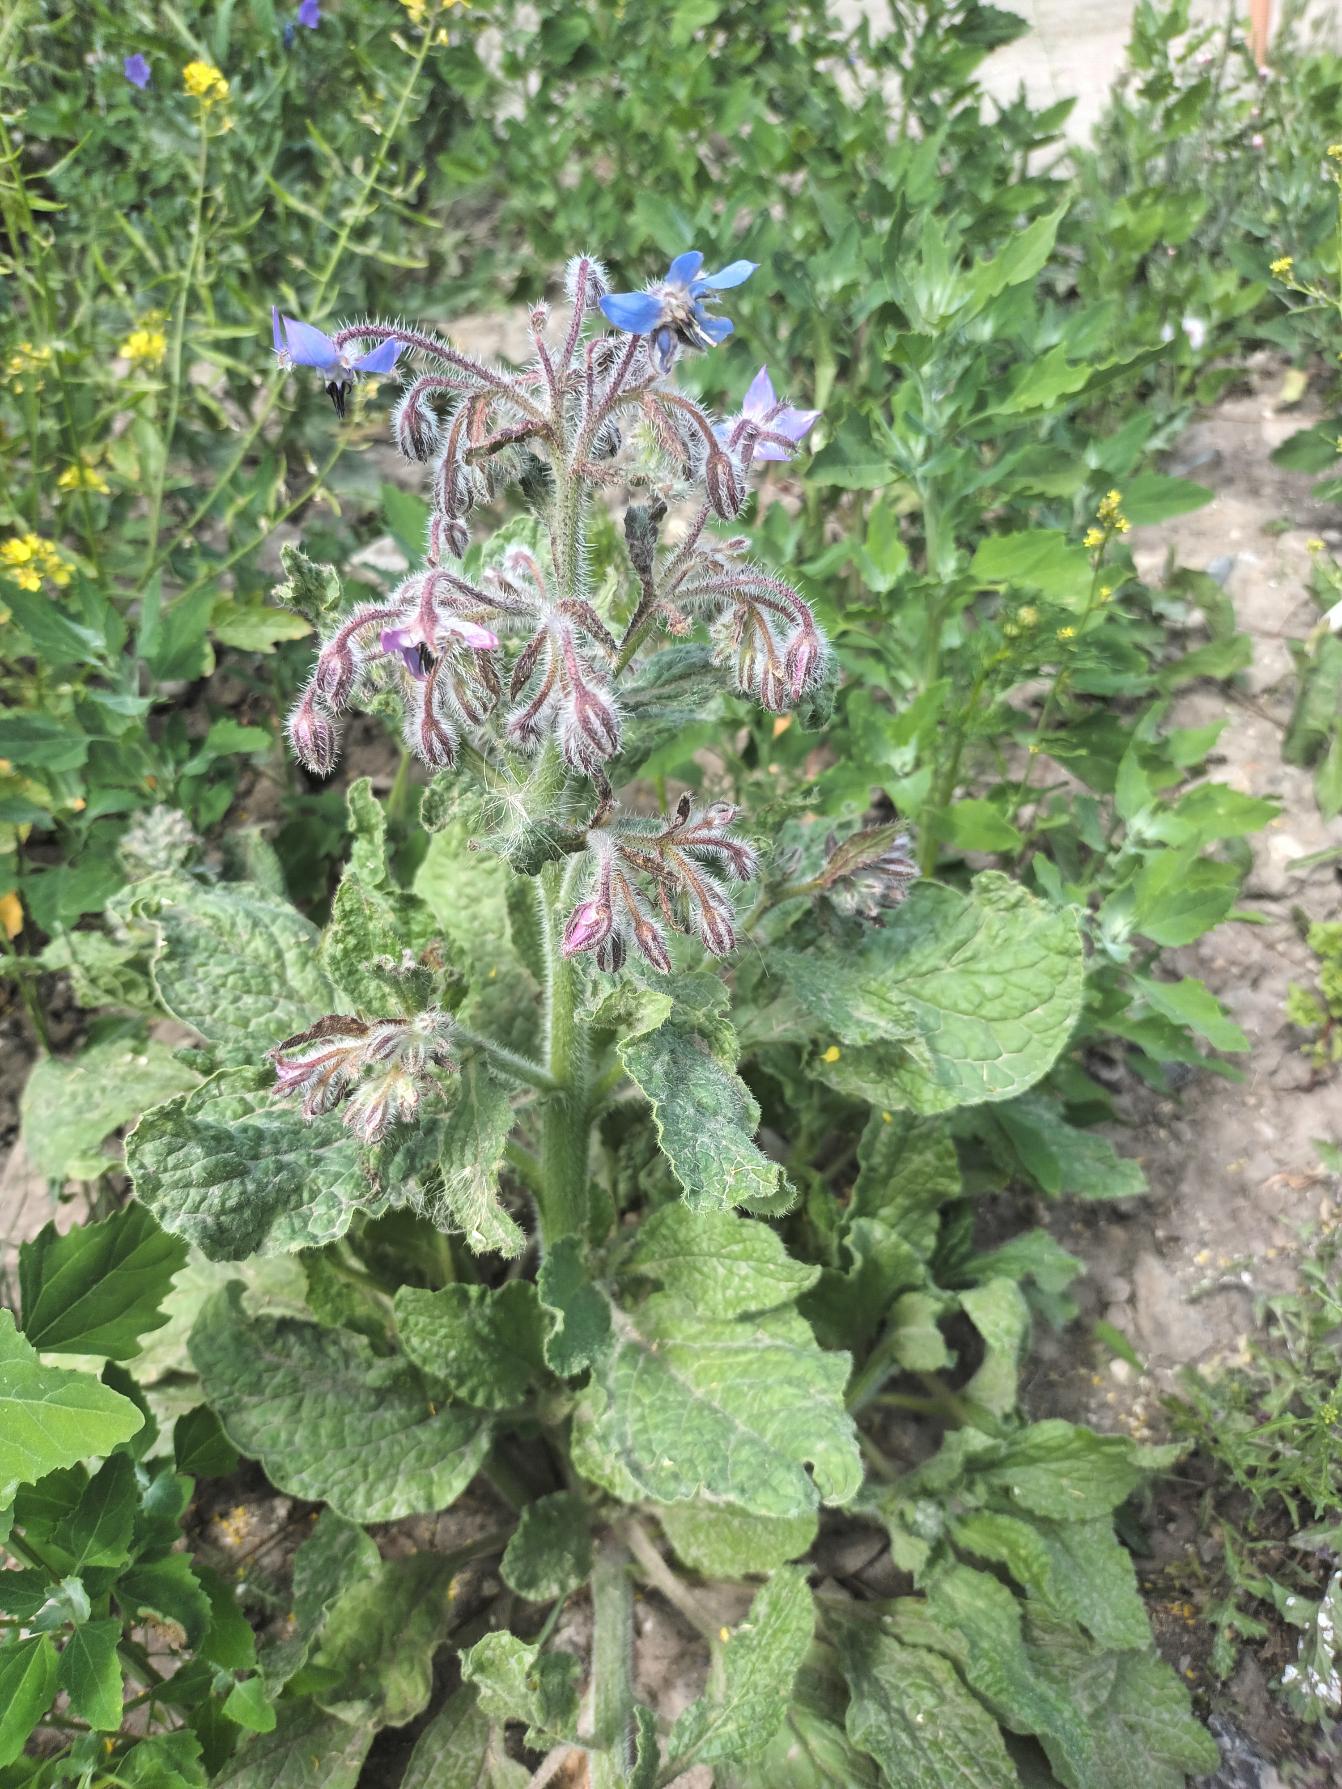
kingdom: Plantae
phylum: Tracheophyta
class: Magnoliopsida
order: Boraginales
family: Boraginaceae
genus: Borago
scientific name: Borago officinalis
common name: Hjulkrone
